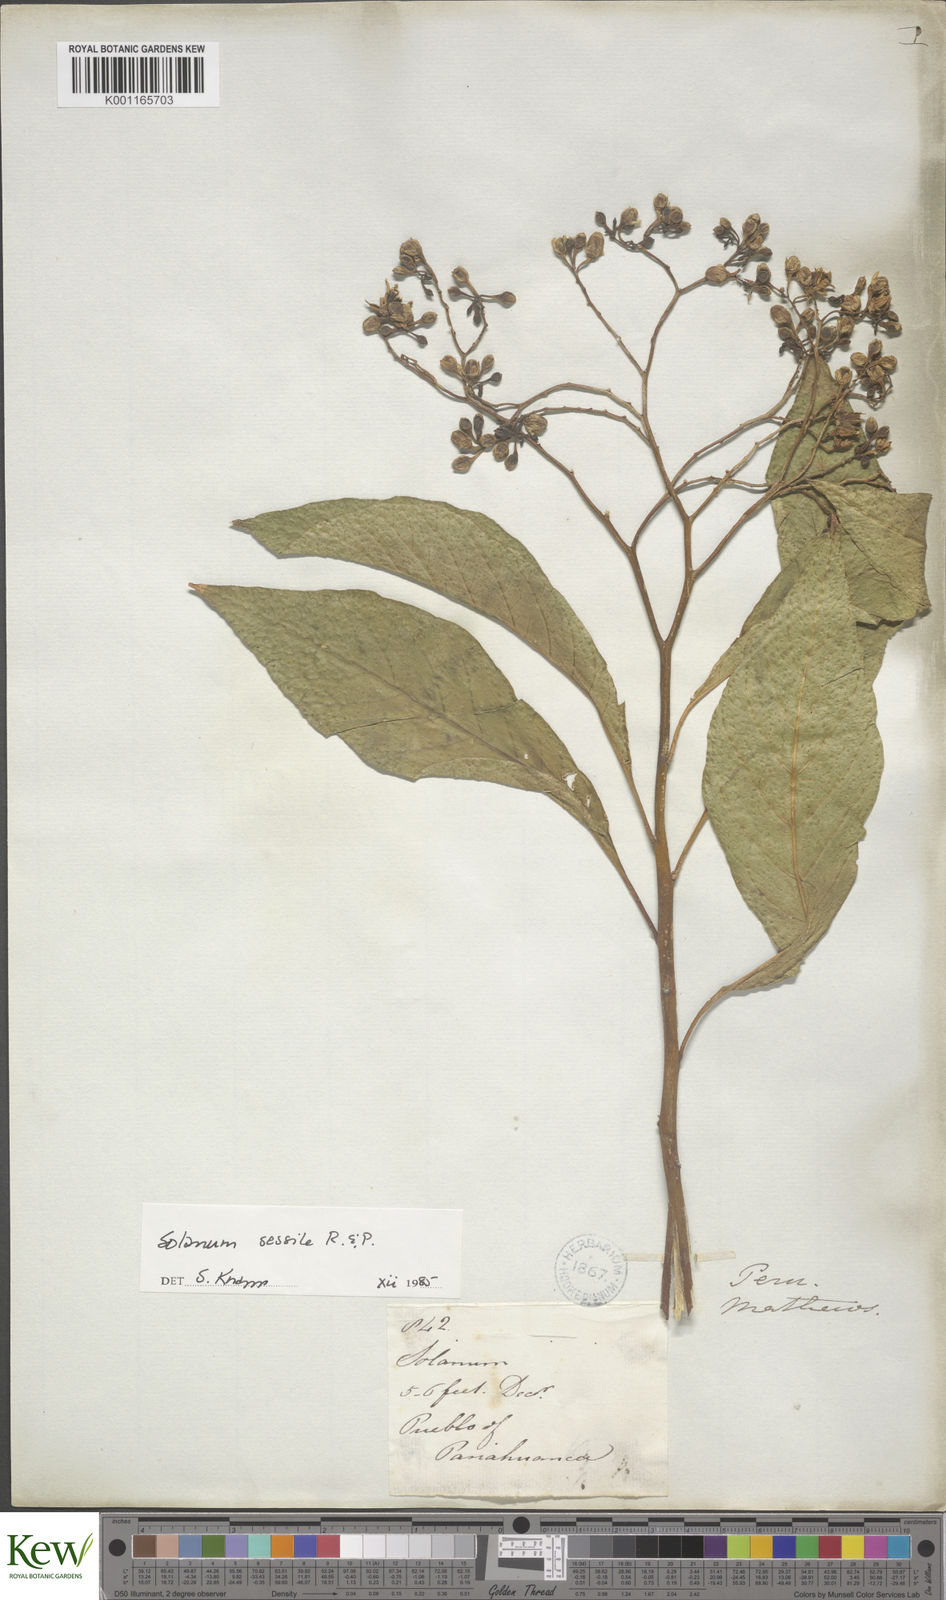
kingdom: Plantae
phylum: Tracheophyta
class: Magnoliopsida
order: Solanales
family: Solanaceae
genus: Solanum
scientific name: Solanum sessile
